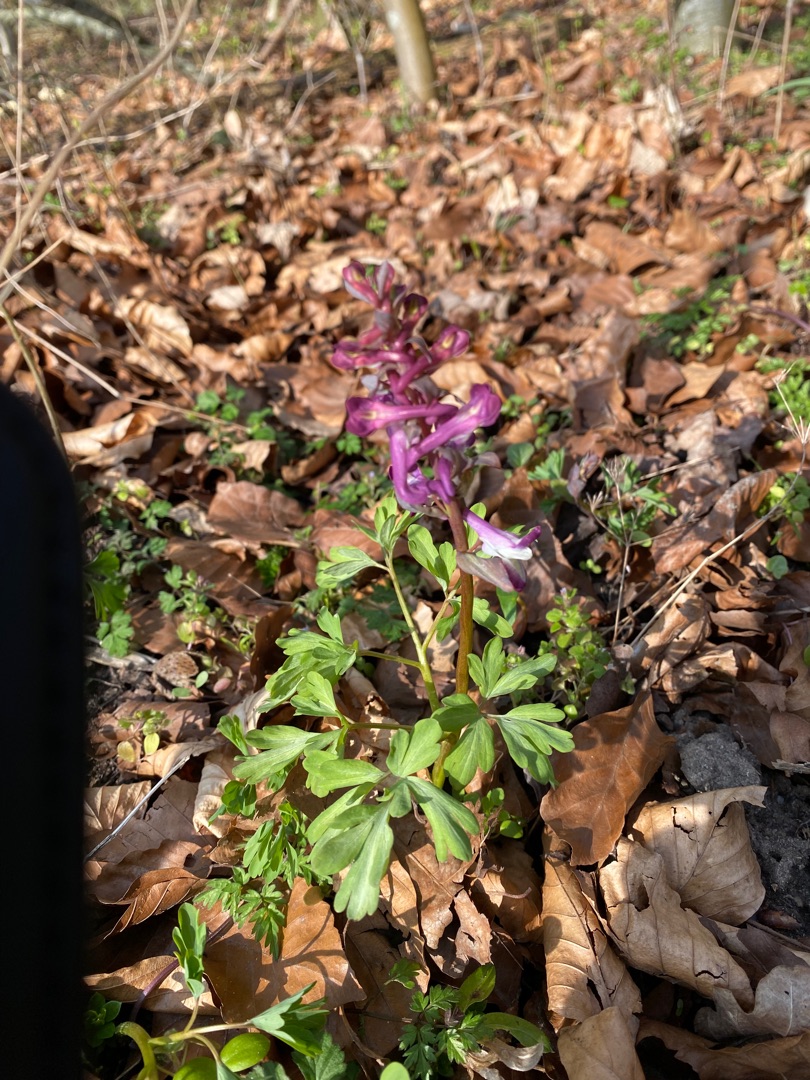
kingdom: Plantae
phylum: Tracheophyta
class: Magnoliopsida
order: Ranunculales
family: Papaveraceae
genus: Corydalis
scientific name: Corydalis cava
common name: Hulrodet lærkespore
